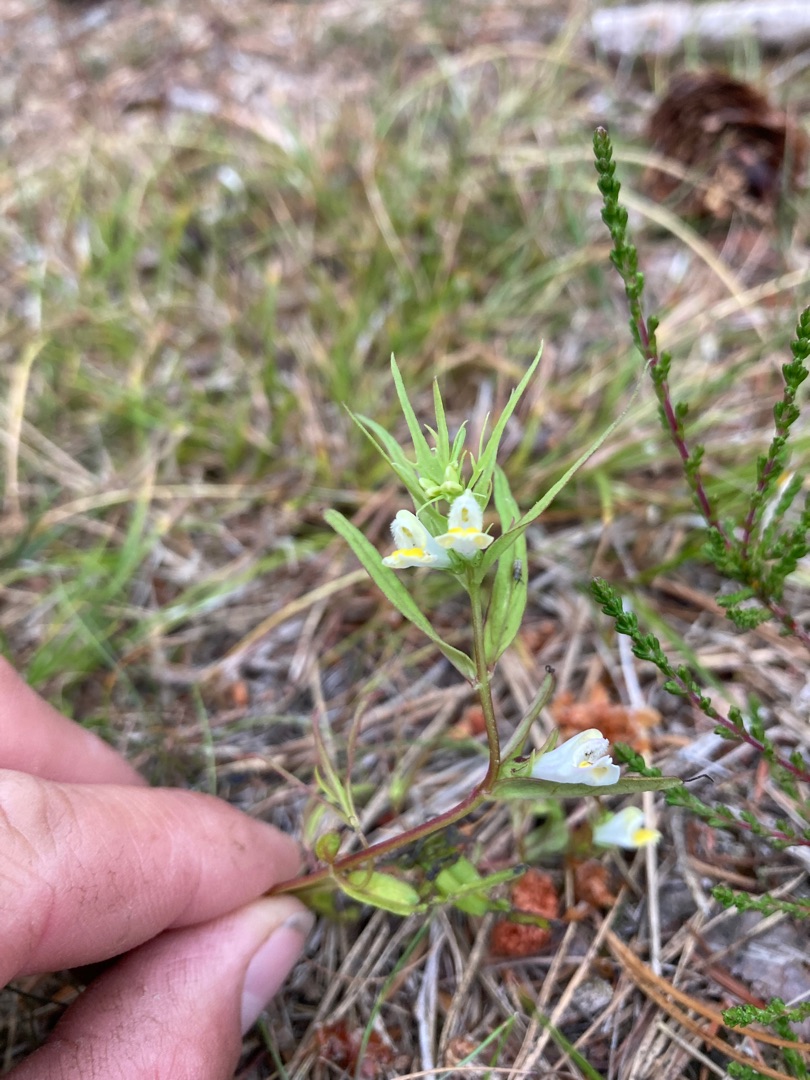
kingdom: Plantae
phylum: Tracheophyta
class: Magnoliopsida
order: Lamiales
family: Orobanchaceae
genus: Melampyrum
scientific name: Melampyrum pratense
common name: Almindelig kohvede
